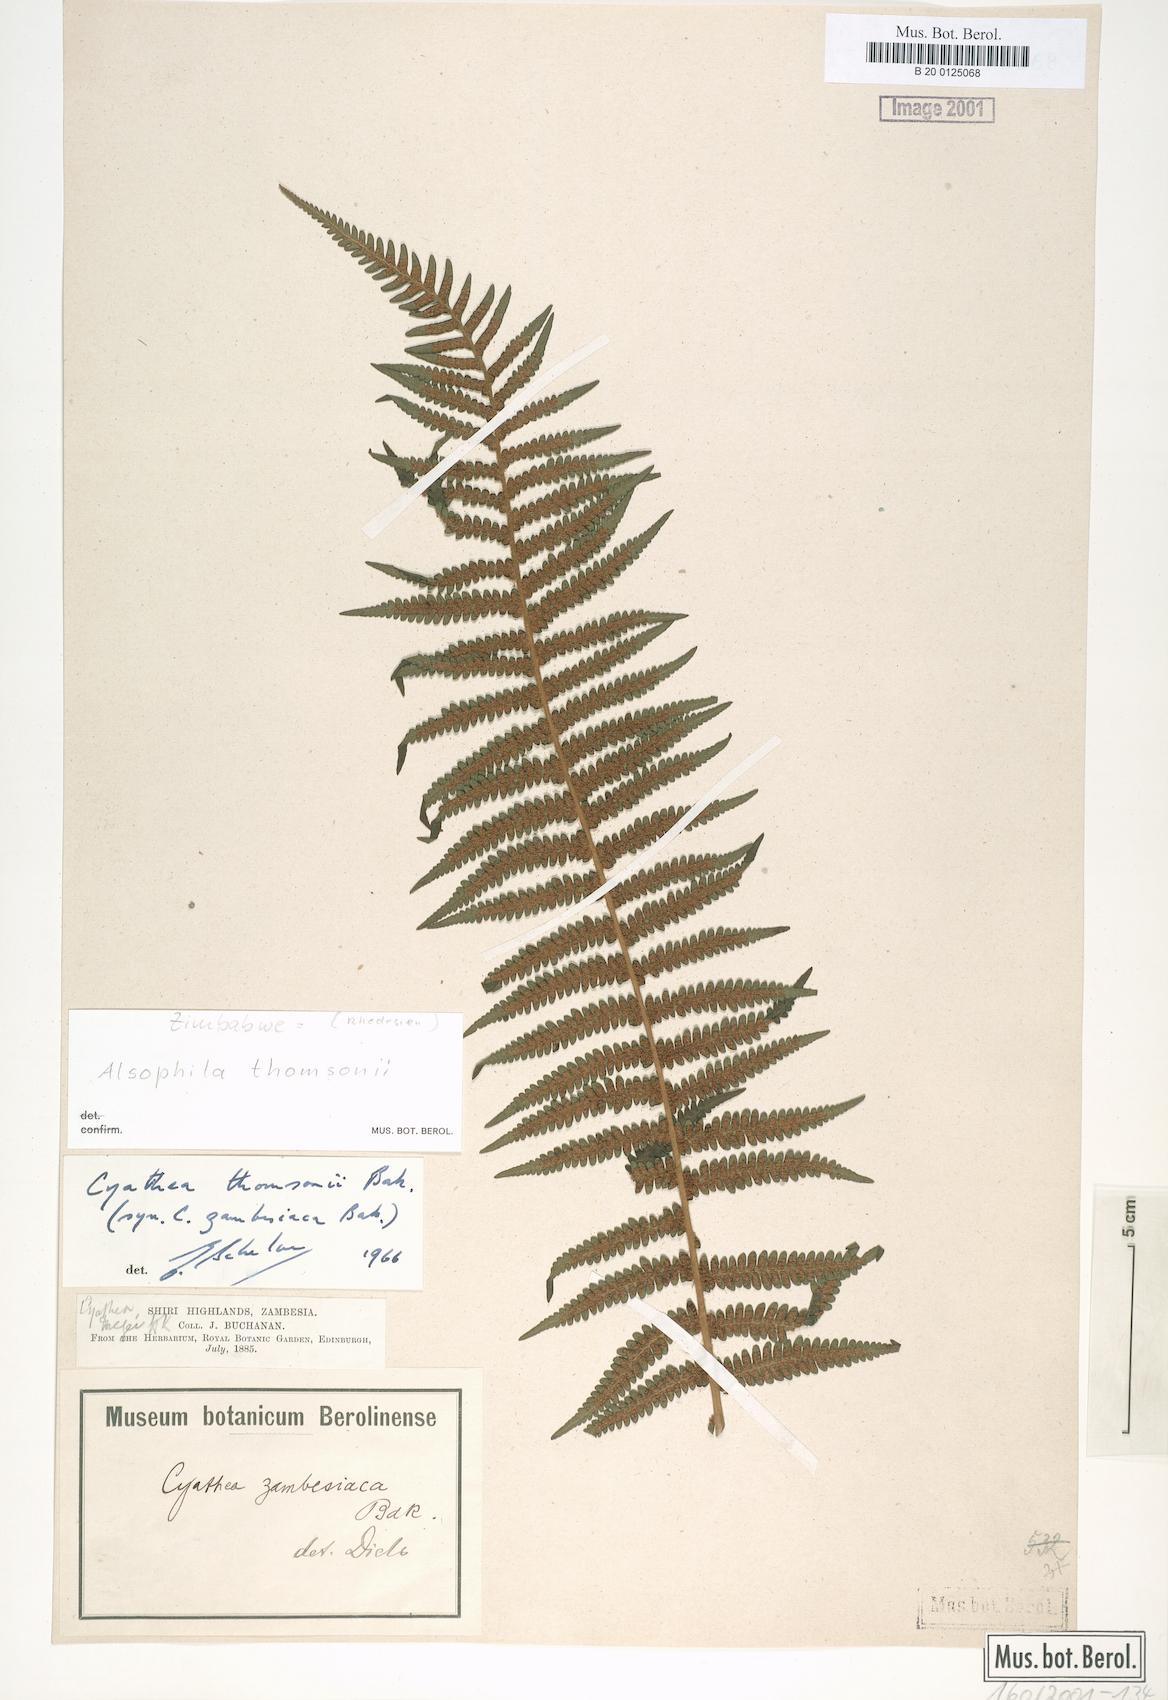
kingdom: Plantae
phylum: Tracheophyta
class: Polypodiopsida
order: Cyatheales
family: Cyatheaceae
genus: Alsophila
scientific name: Alsophila camerooniana
